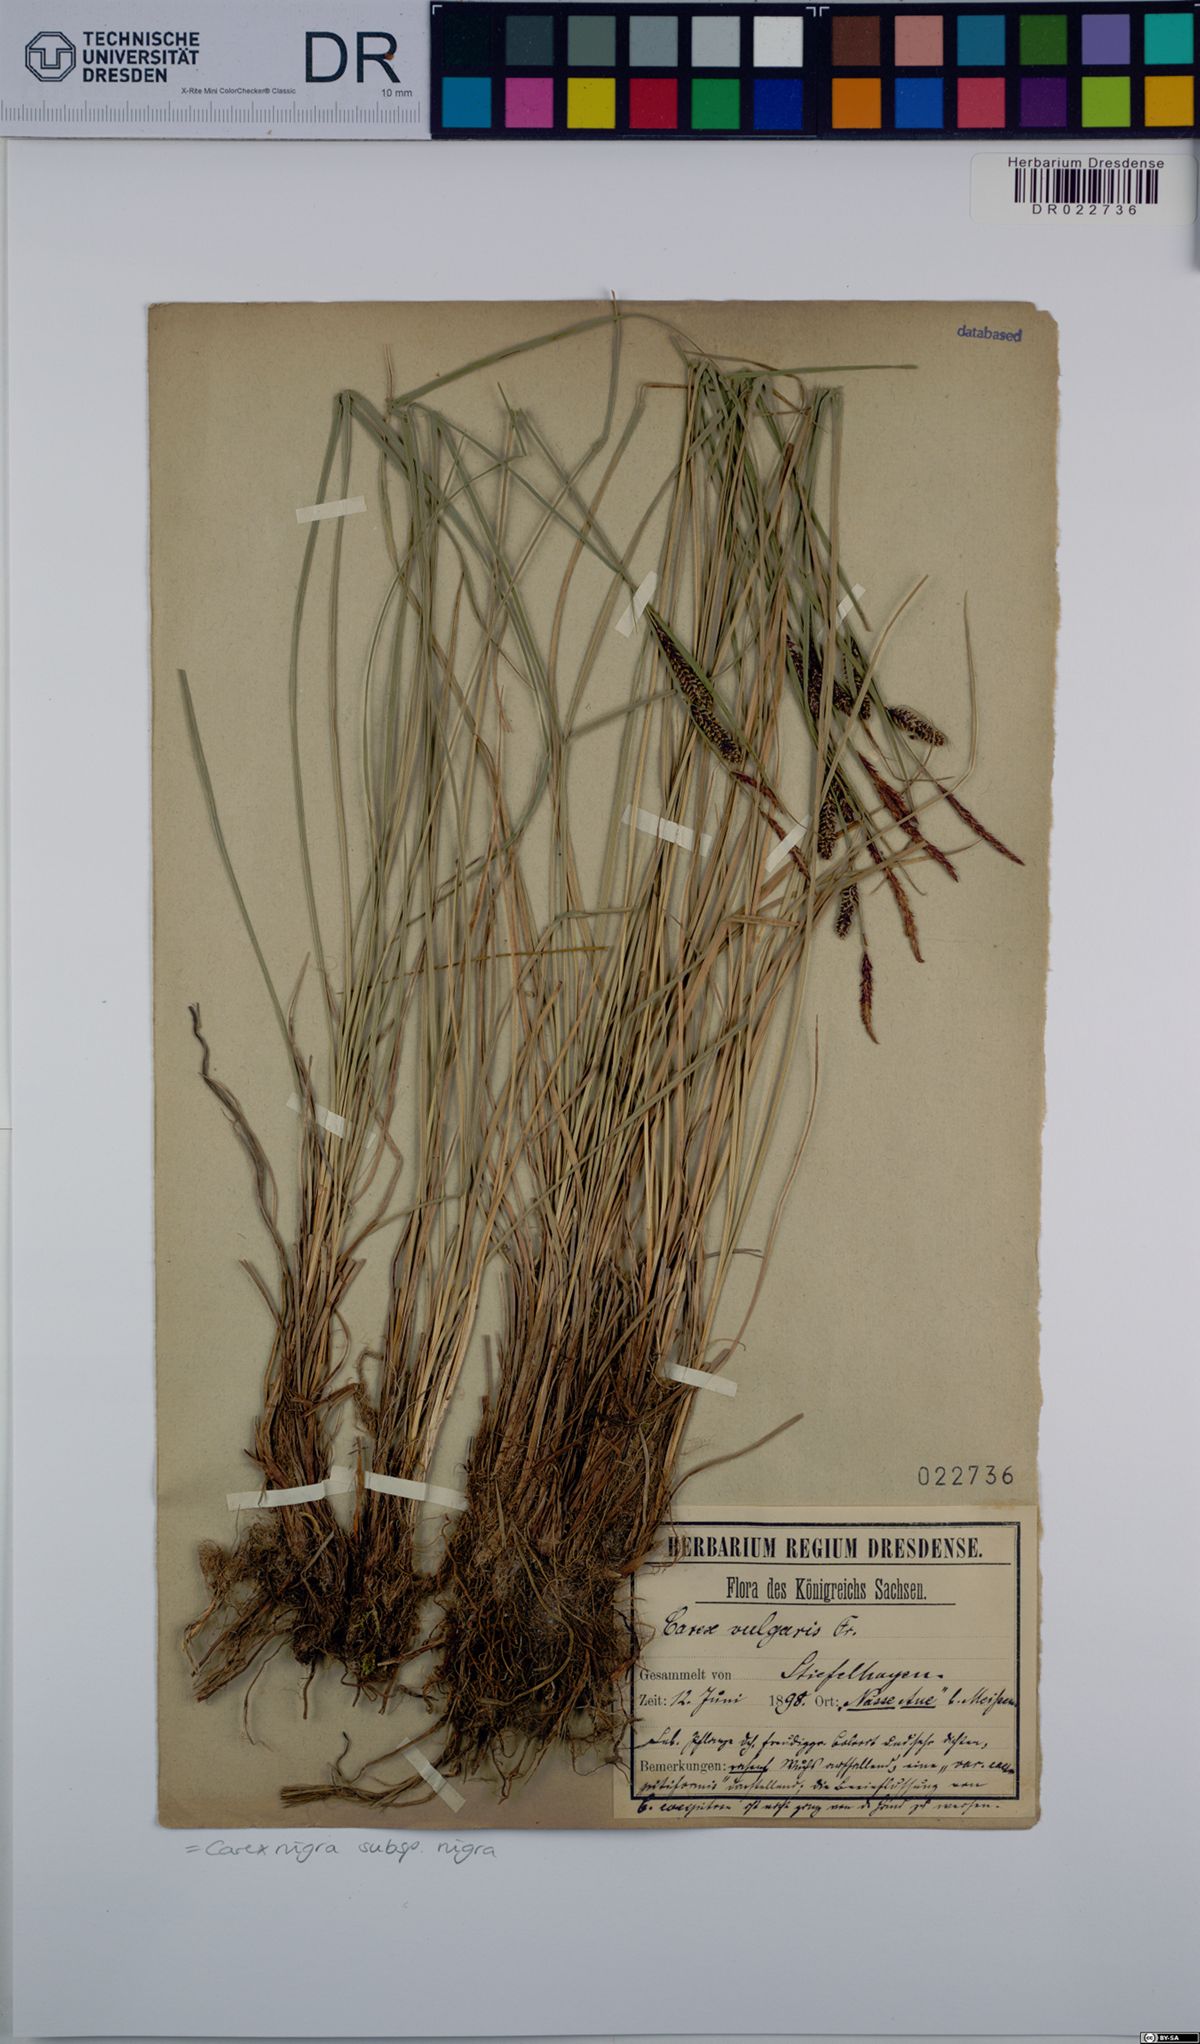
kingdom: Plantae
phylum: Tracheophyta
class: Liliopsida
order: Poales
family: Cyperaceae
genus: Carex
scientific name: Carex nigra
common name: Common sedge
